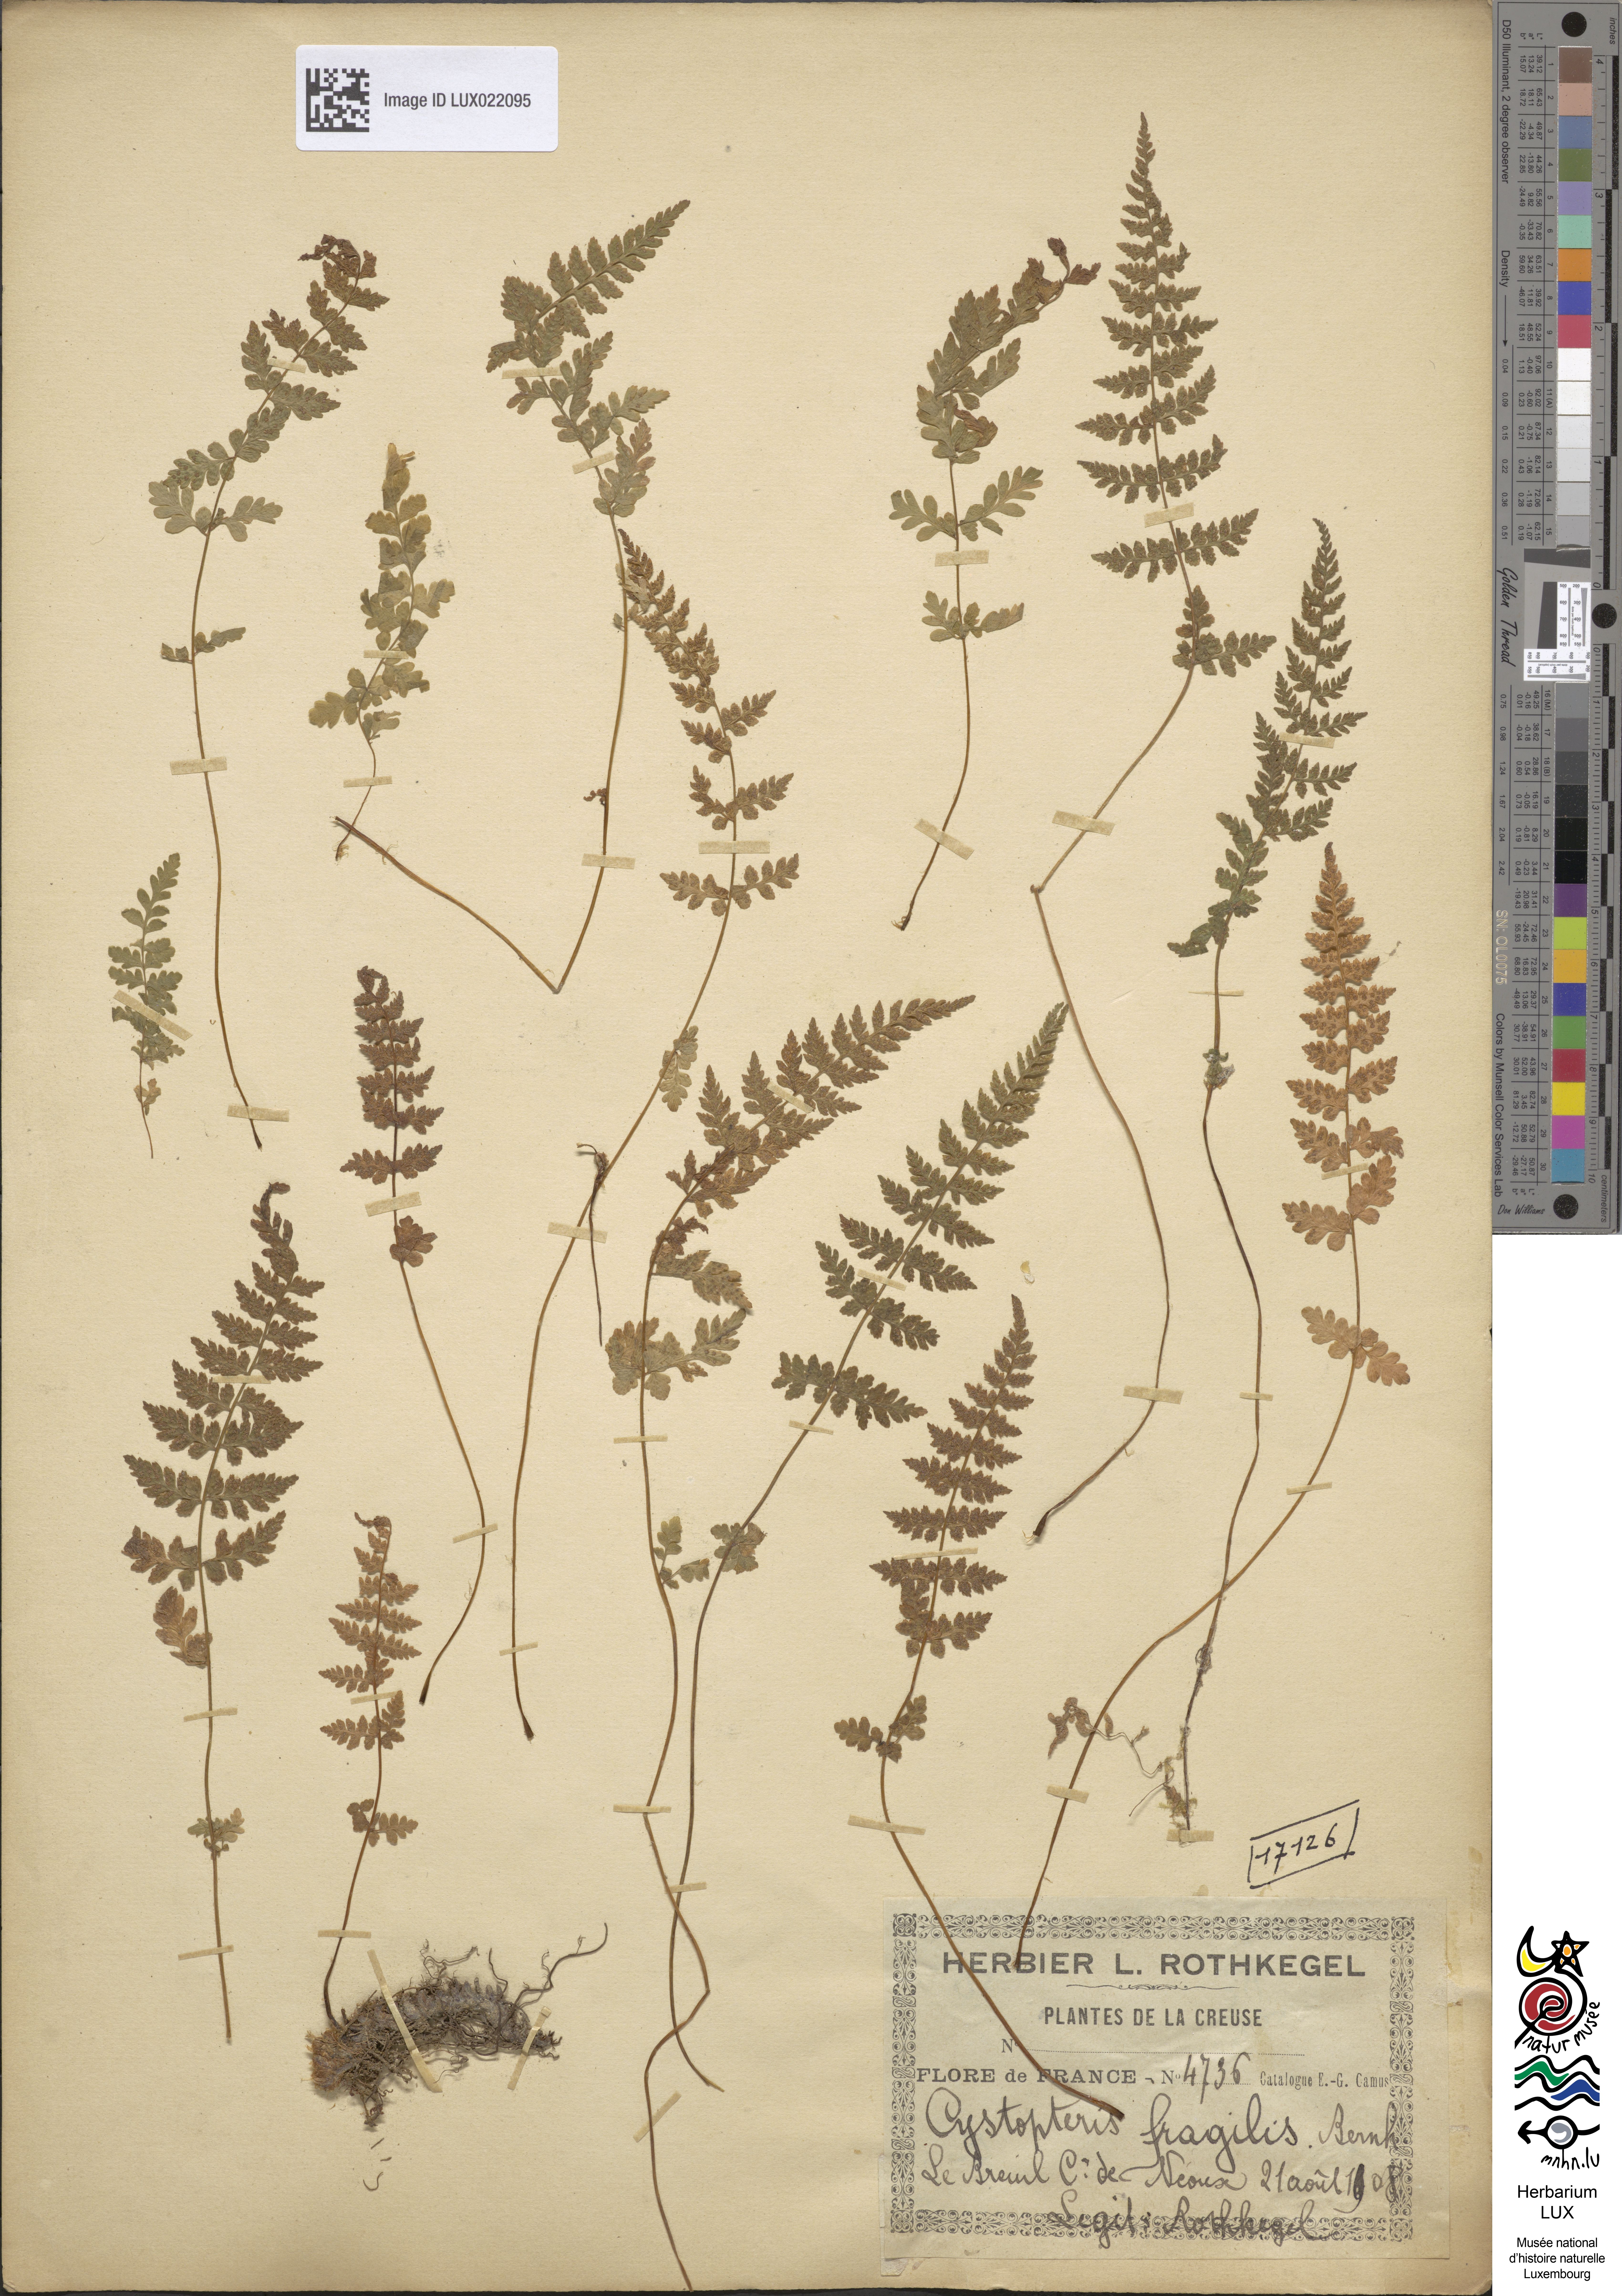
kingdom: Plantae
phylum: Tracheophyta
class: Polypodiopsida
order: Polypodiales
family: Cystopteridaceae
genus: Cystopteris
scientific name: Cystopteris fragilis
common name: Brittle bladder fern
